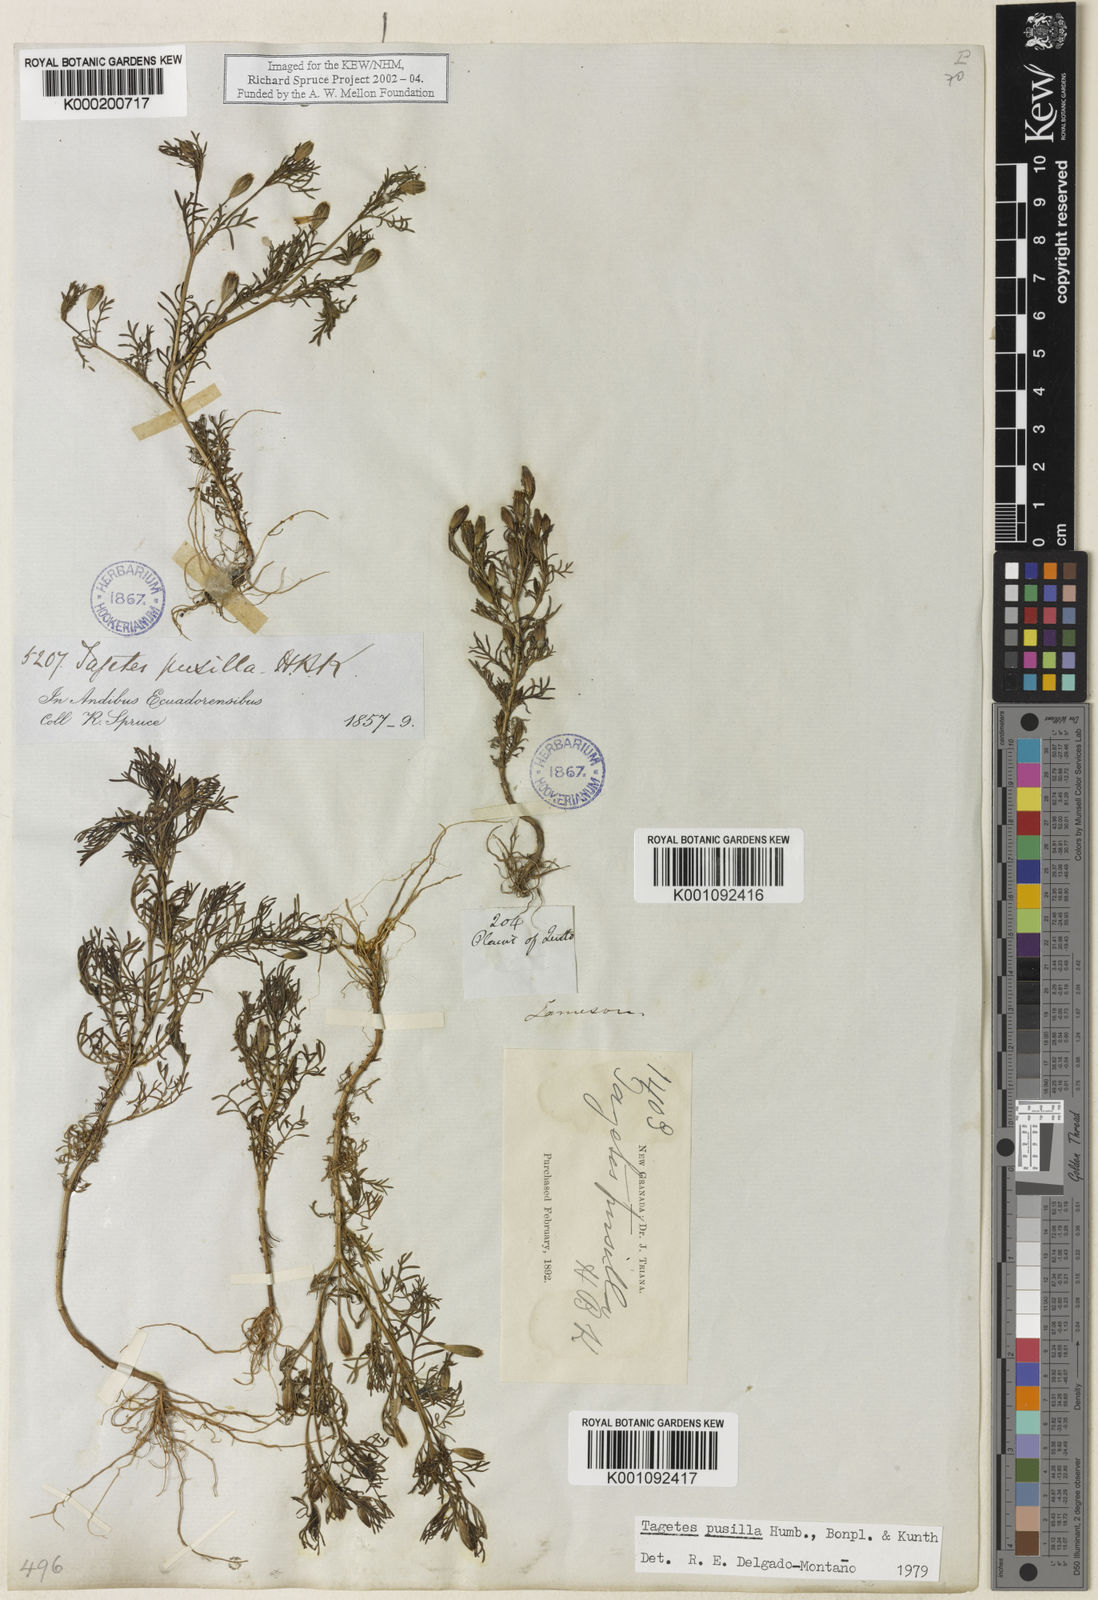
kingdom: Plantae
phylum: Tracheophyta
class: Magnoliopsida
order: Asterales
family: Asteraceae
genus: Tagetes
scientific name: Tagetes
